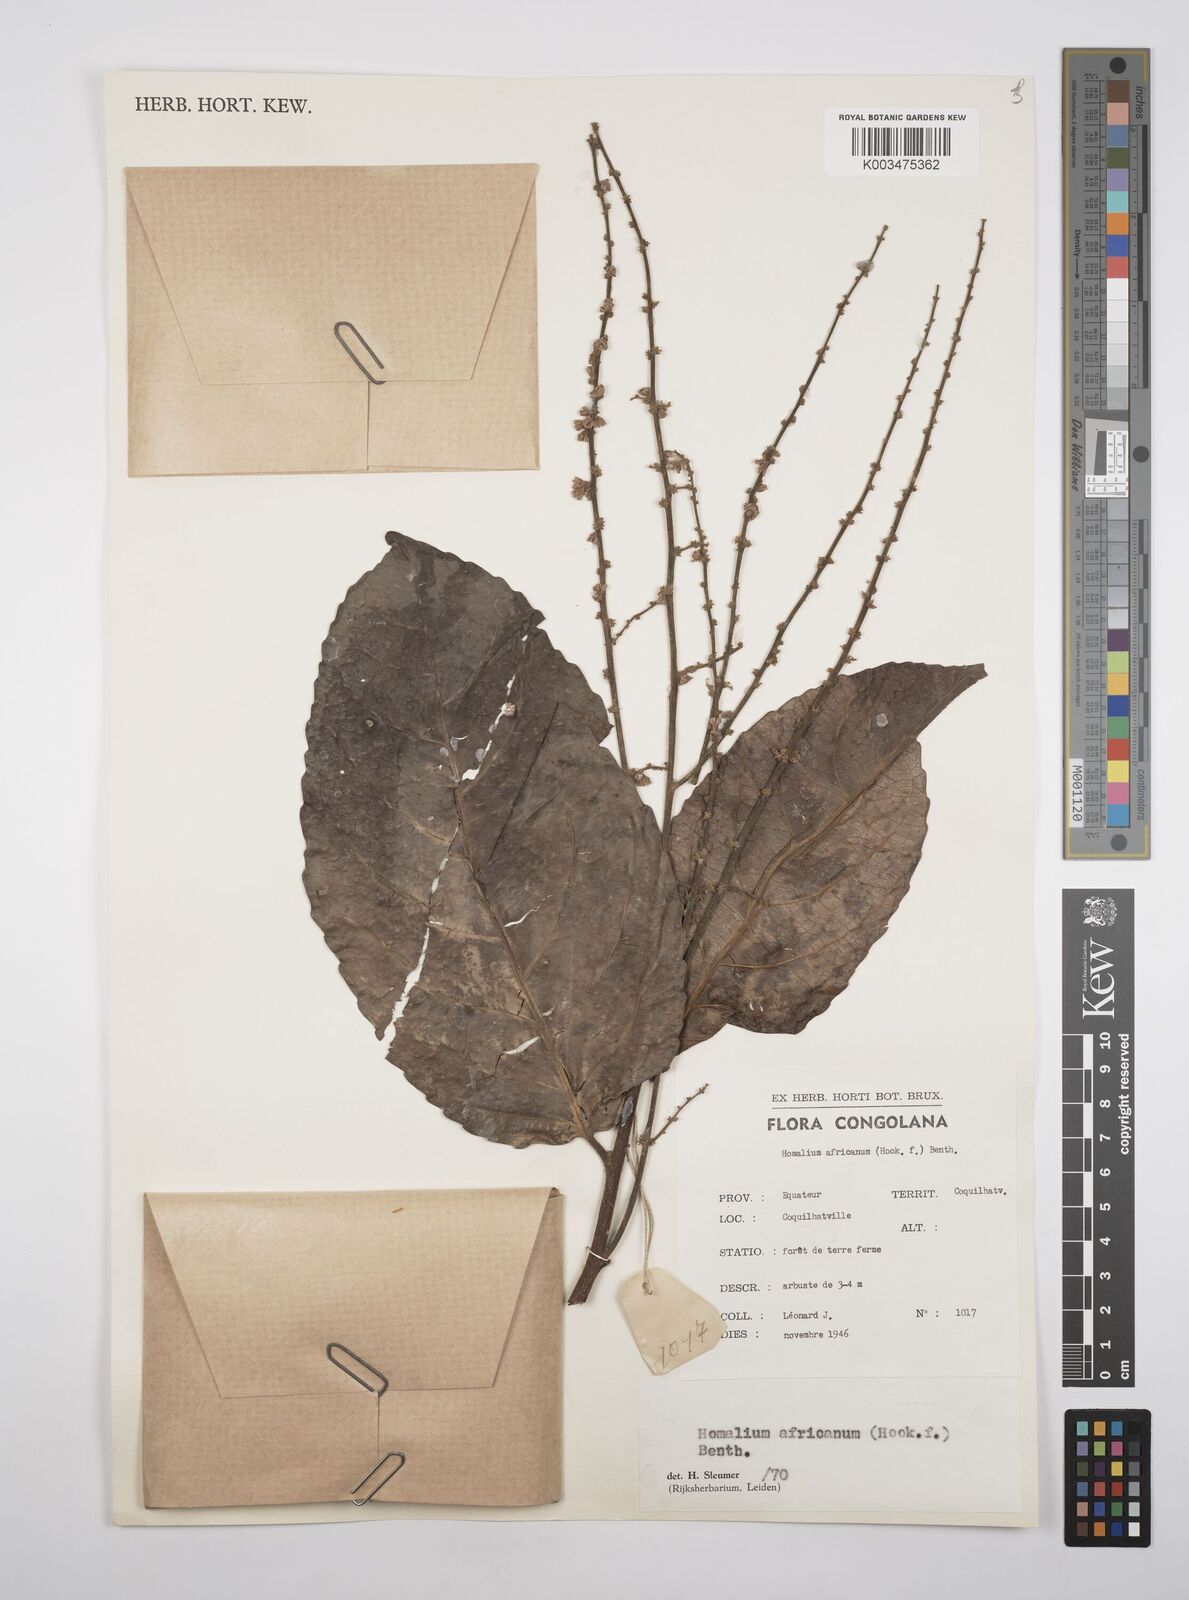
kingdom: Plantae
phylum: Tracheophyta
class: Magnoliopsida
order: Malpighiales
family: Salicaceae
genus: Homalium
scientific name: Homalium africanum
